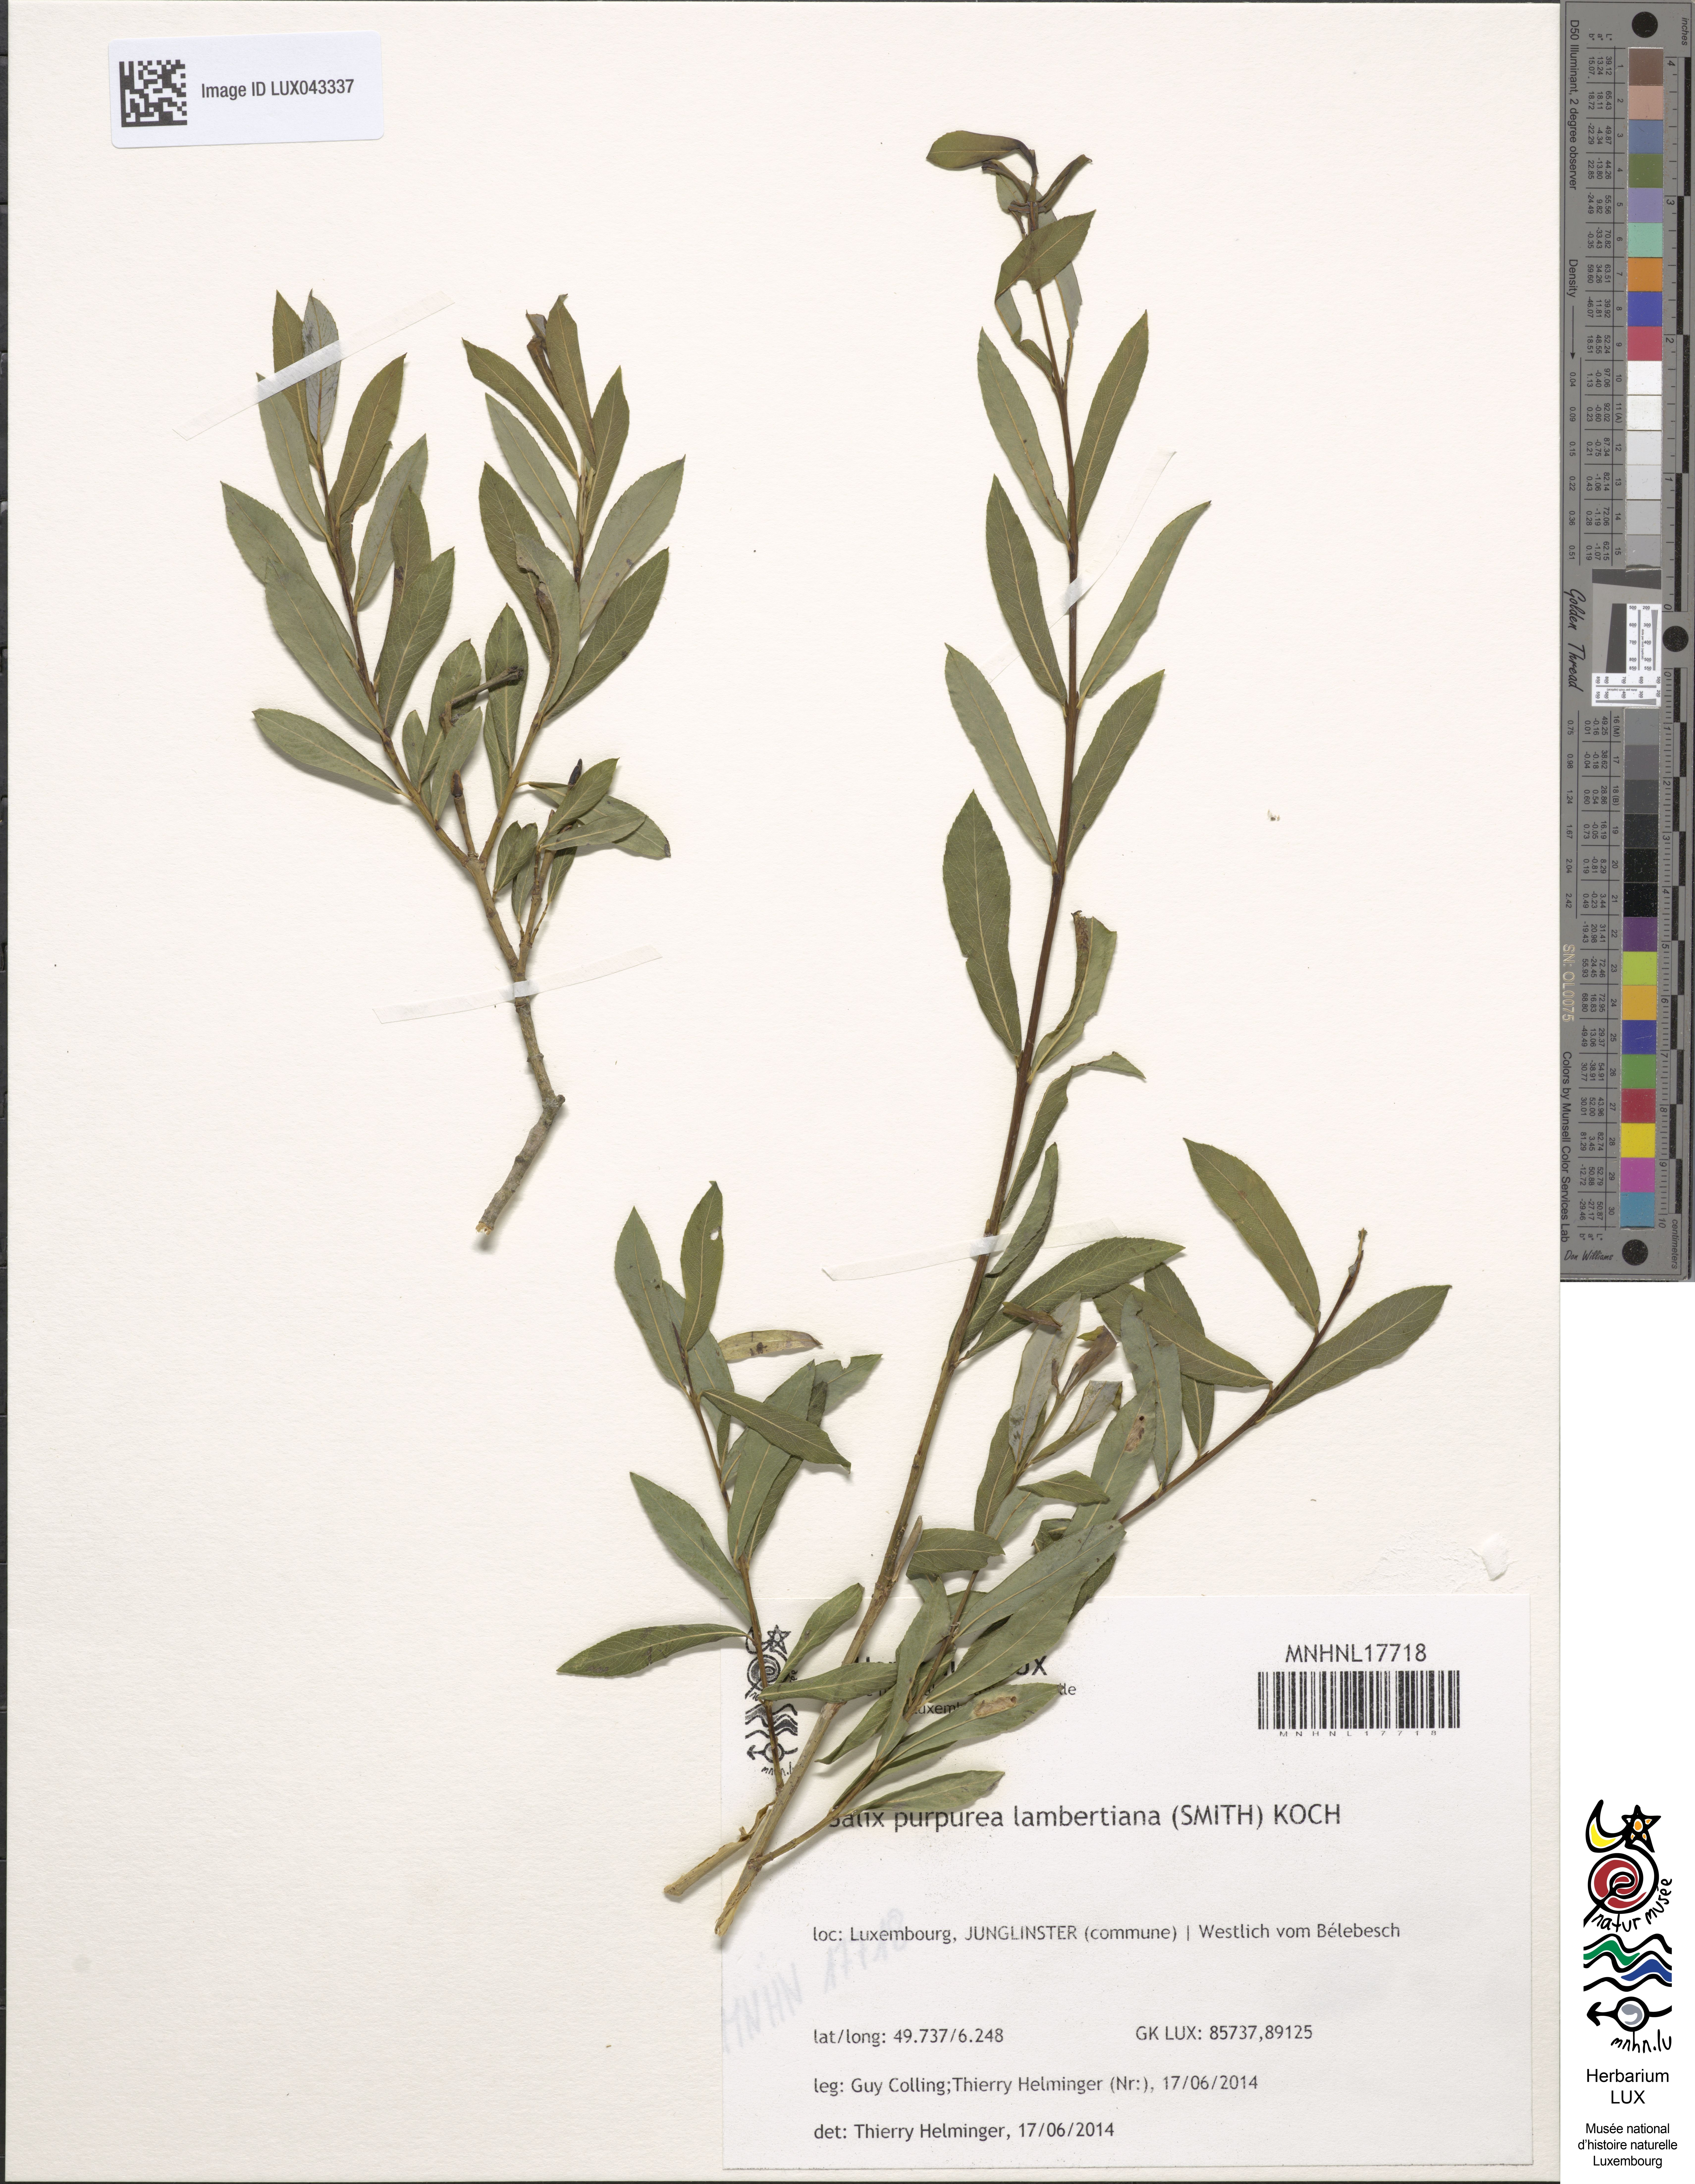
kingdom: Plantae
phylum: Tracheophyta
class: Magnoliopsida
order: Malpighiales
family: Salicaceae
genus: Salix
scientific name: Salix lambertiana
